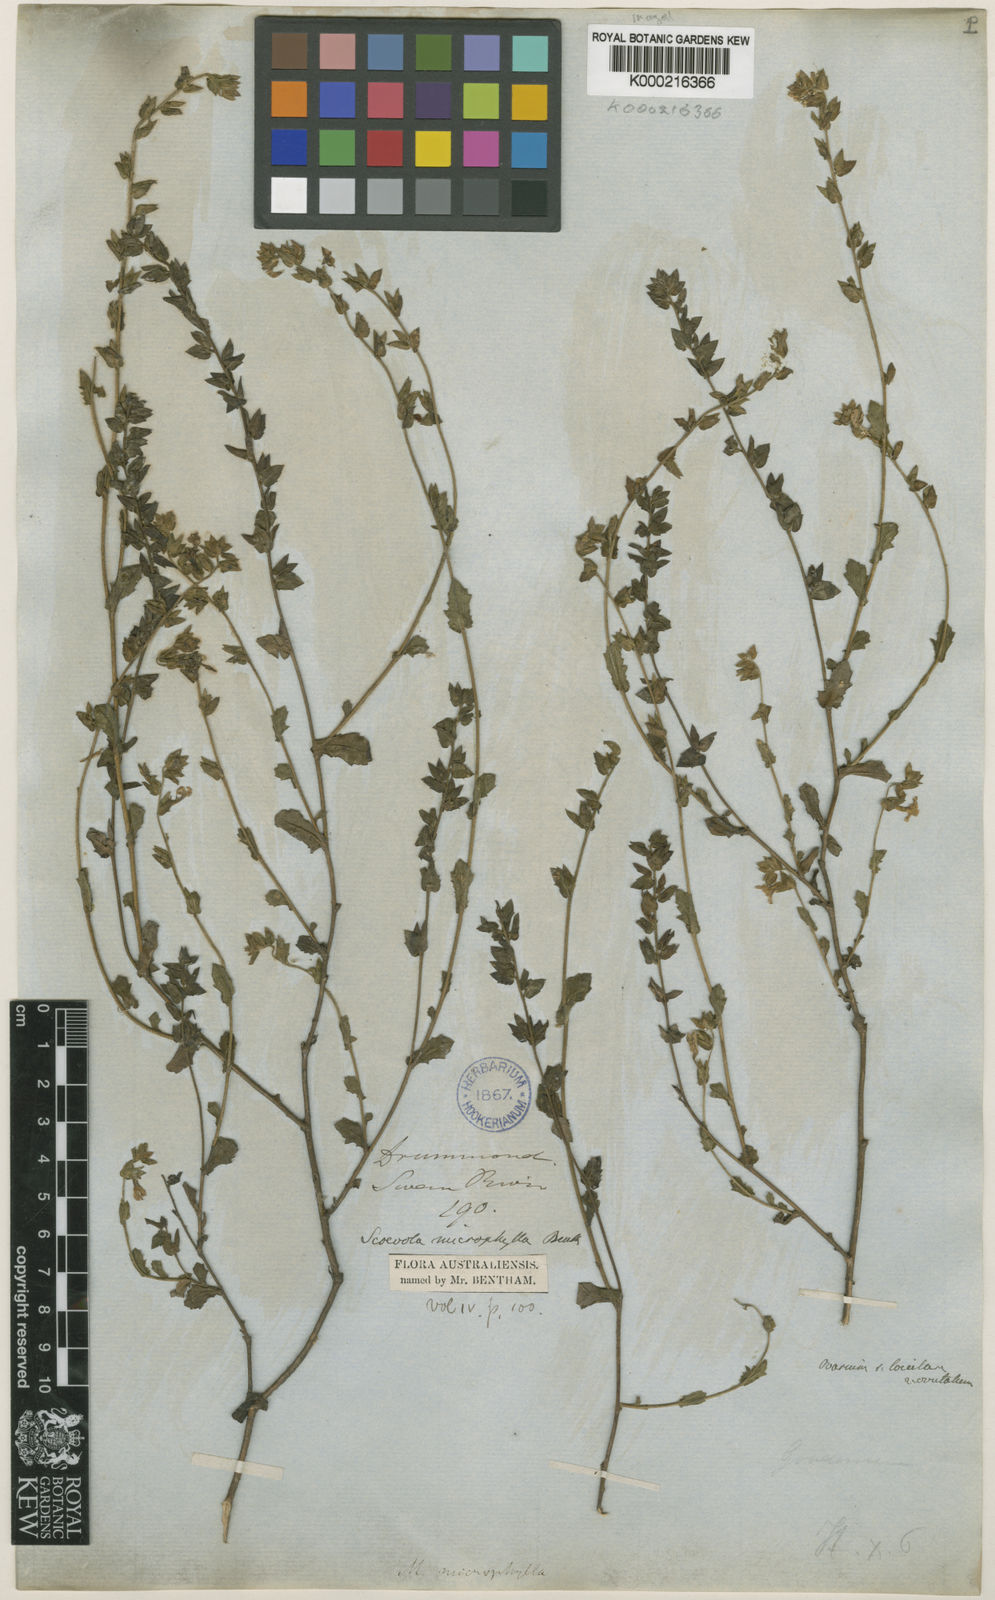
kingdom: Plantae
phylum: Tracheophyta
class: Magnoliopsida
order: Asterales
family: Goodeniaceae
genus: Scaevola
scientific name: Scaevola microphylla
